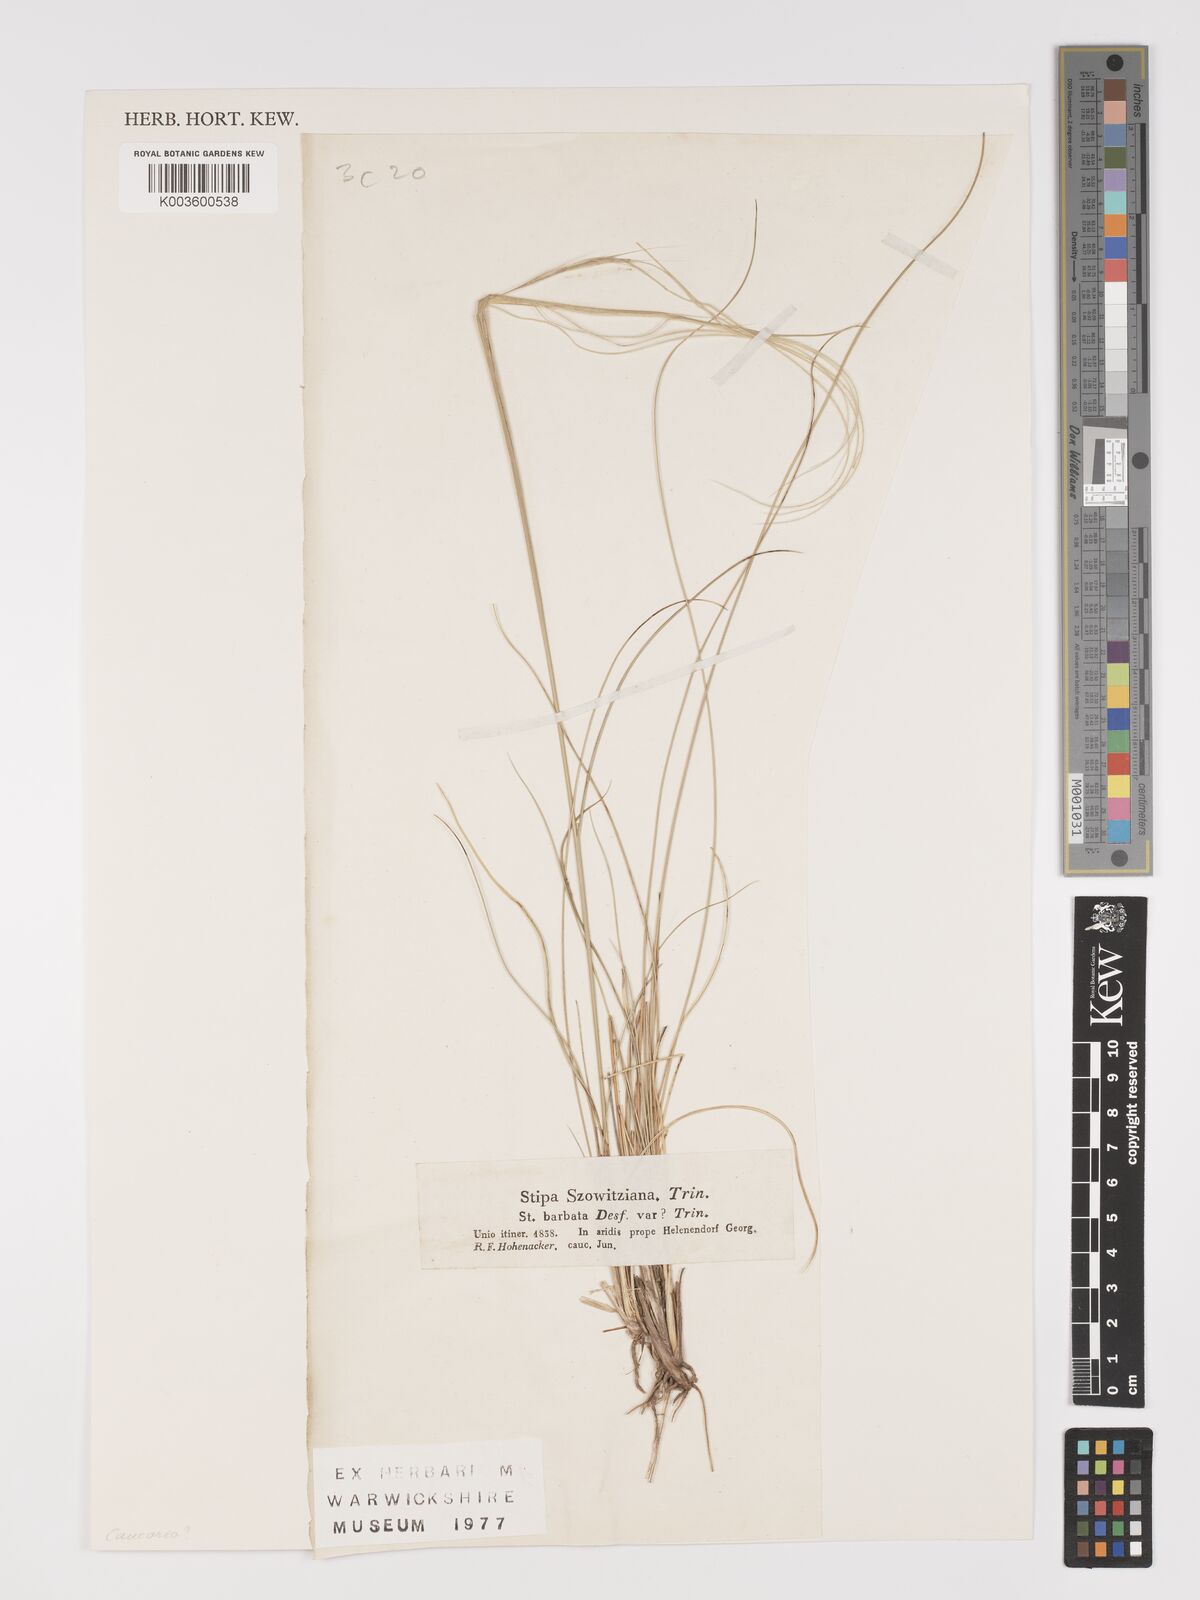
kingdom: Plantae
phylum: Tracheophyta
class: Liliopsida
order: Poales
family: Poaceae
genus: Stipa
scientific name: Stipa barbata
